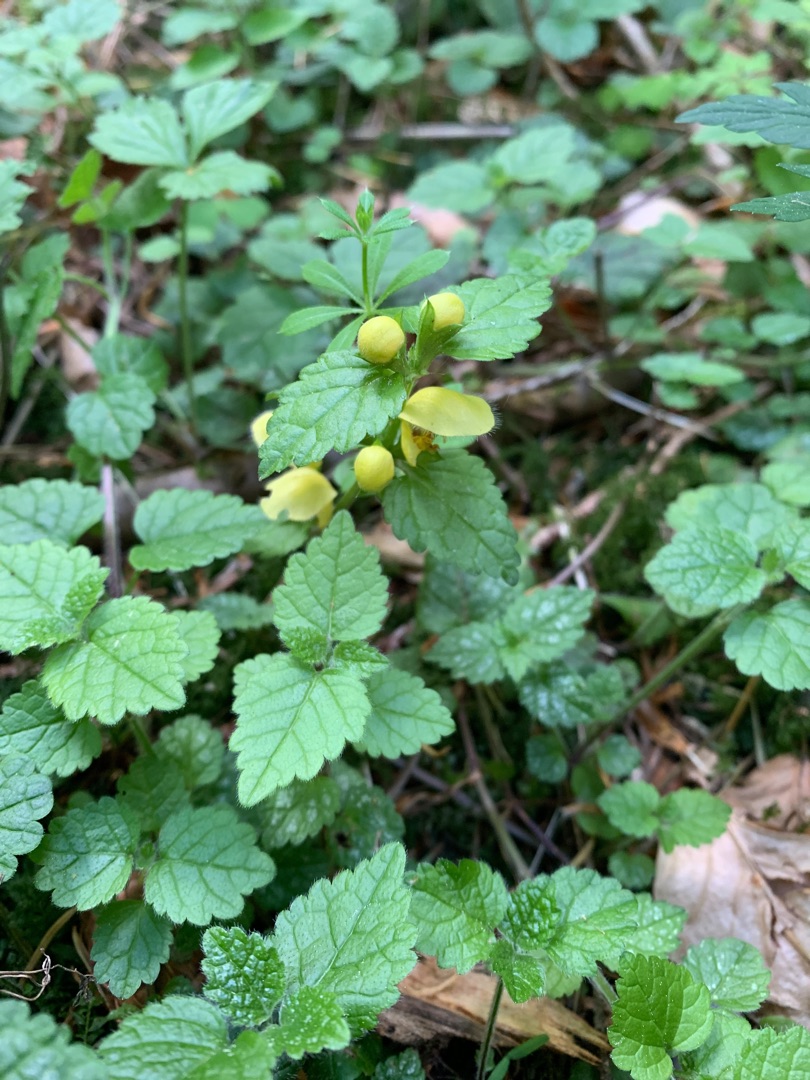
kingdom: Plantae
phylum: Tracheophyta
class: Magnoliopsida
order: Lamiales
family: Lamiaceae
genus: Lamium
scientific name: Lamium galeobdolon
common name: Almindelig guldnælde
